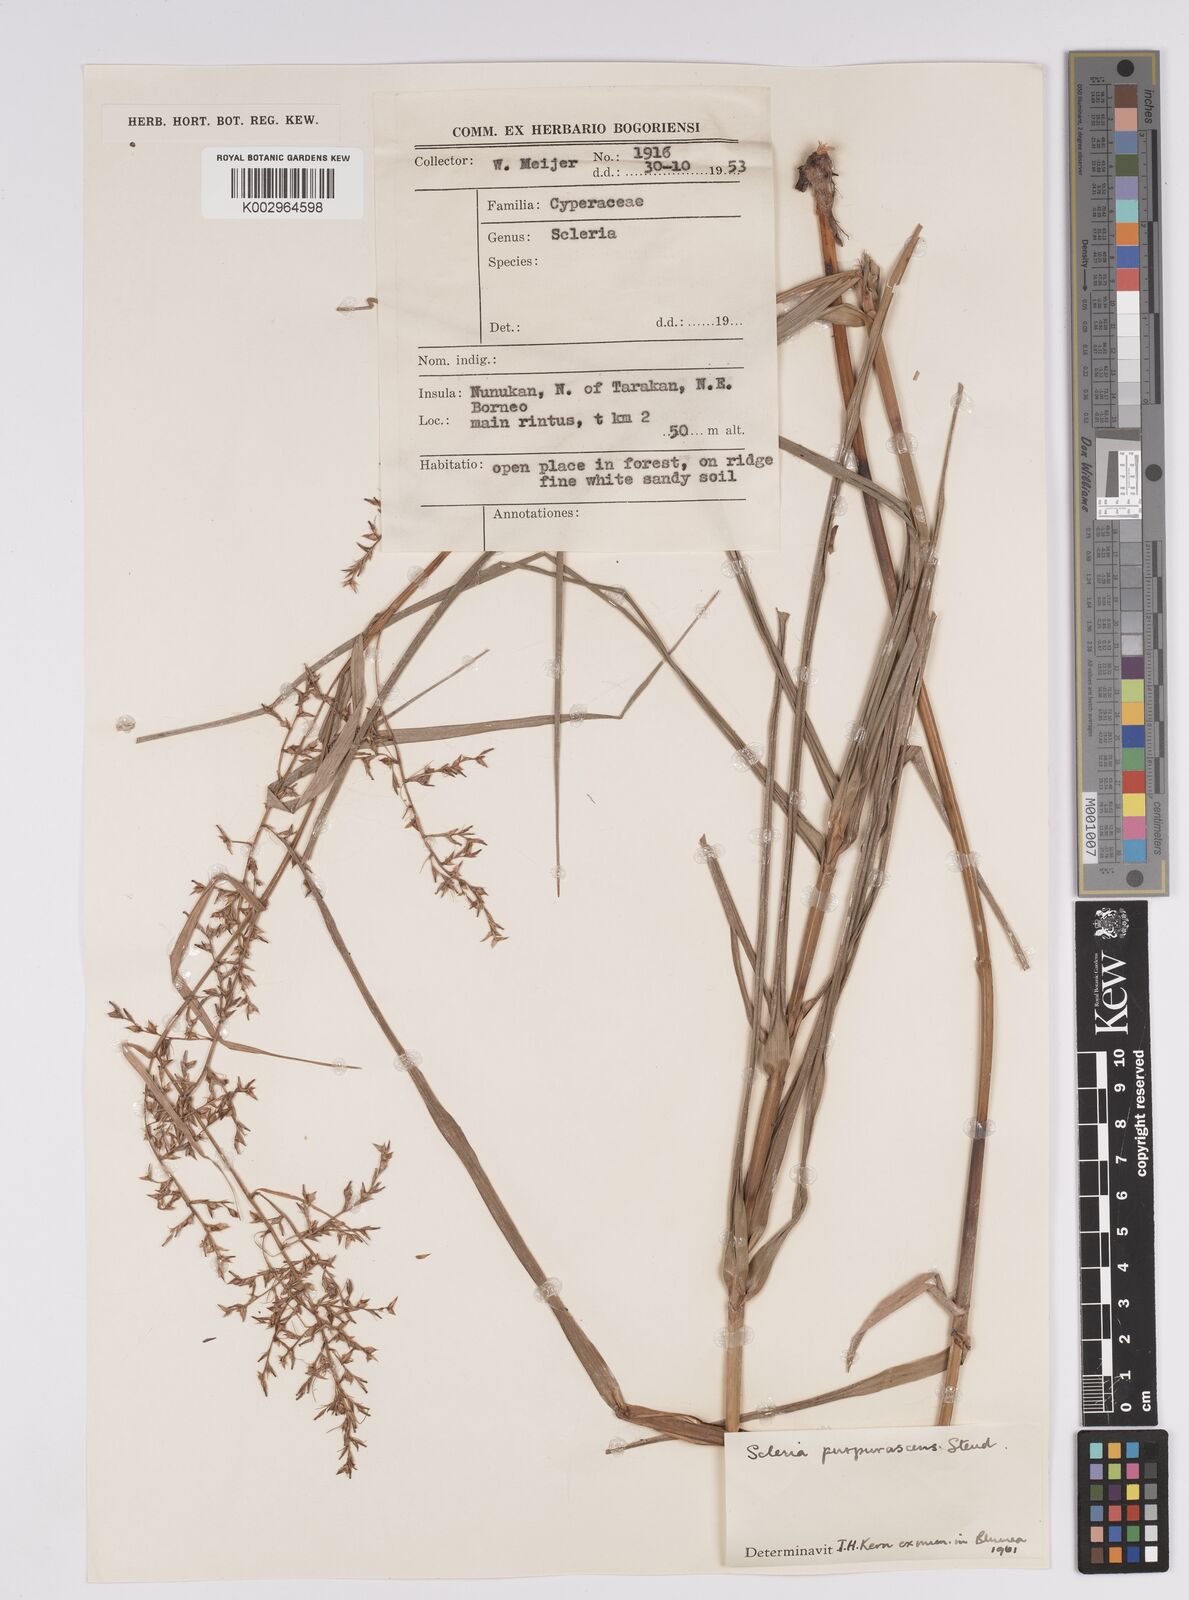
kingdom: Plantae
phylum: Tracheophyta
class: Liliopsida
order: Poales
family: Cyperaceae
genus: Scleria
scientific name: Scleria purpurascens
